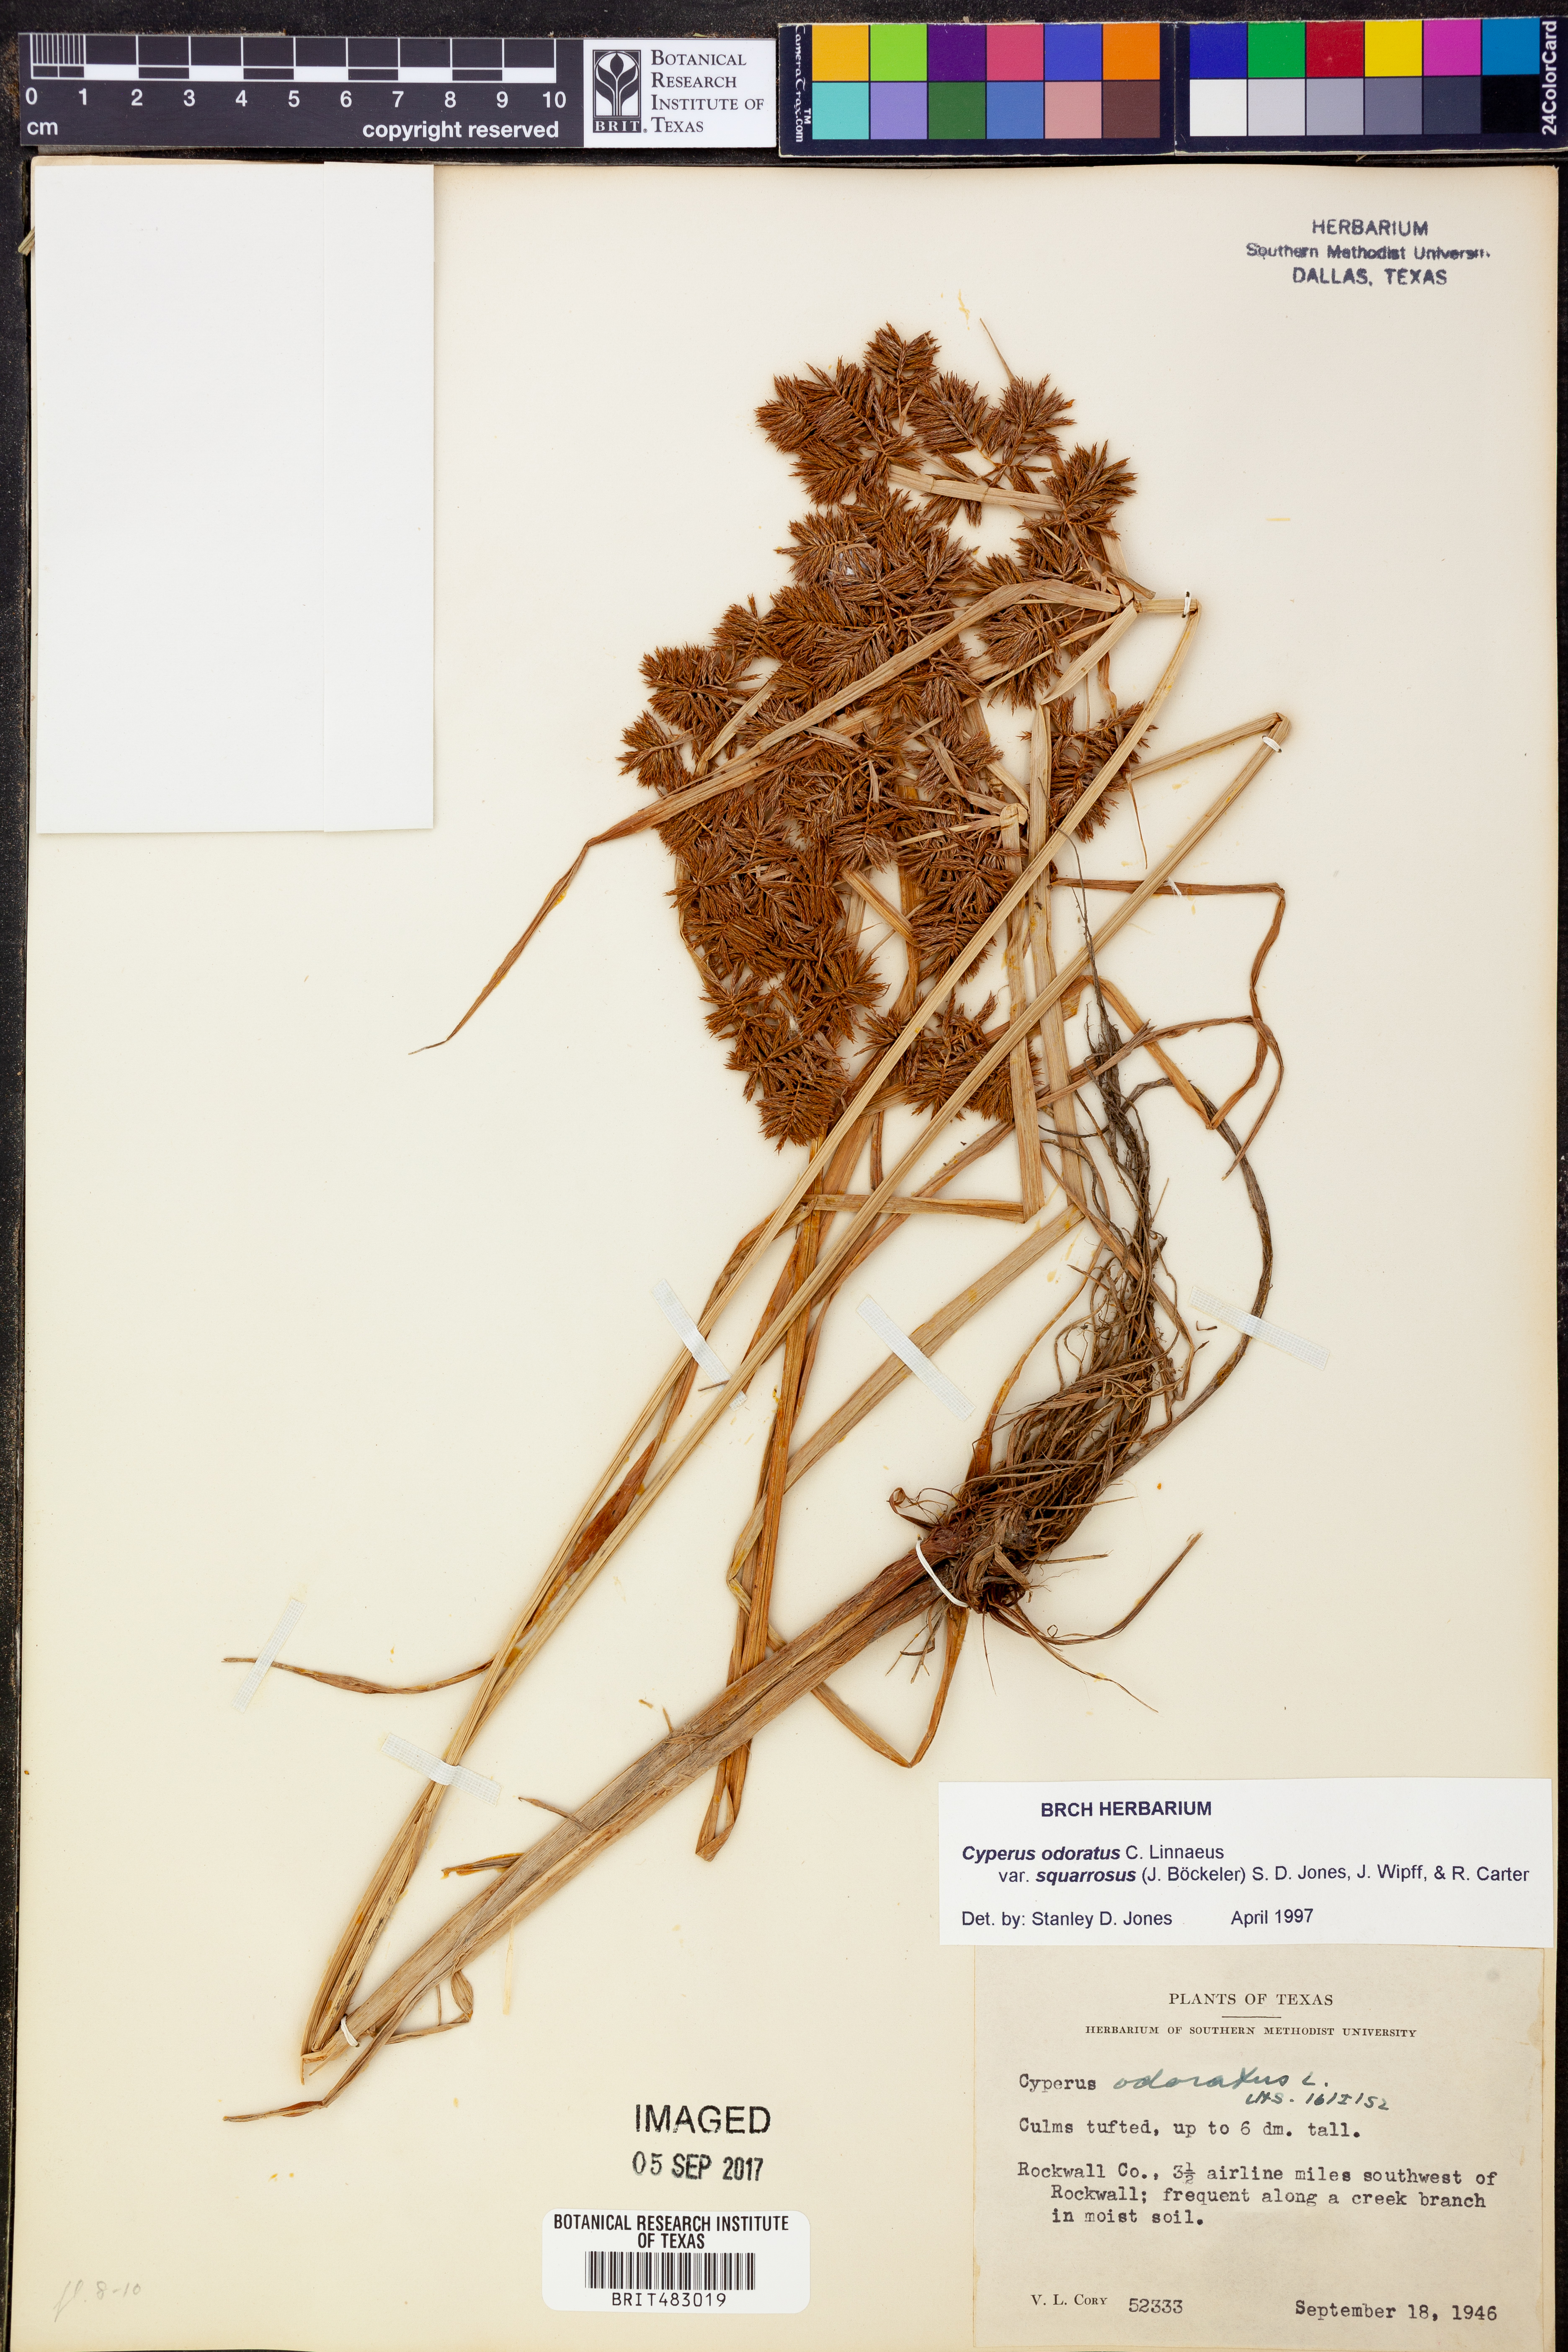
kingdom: Plantae
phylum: Tracheophyta
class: Liliopsida
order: Poales
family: Cyperaceae
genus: Cyperus
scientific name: Cyperus odoratus
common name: Fragrant flatsedge
